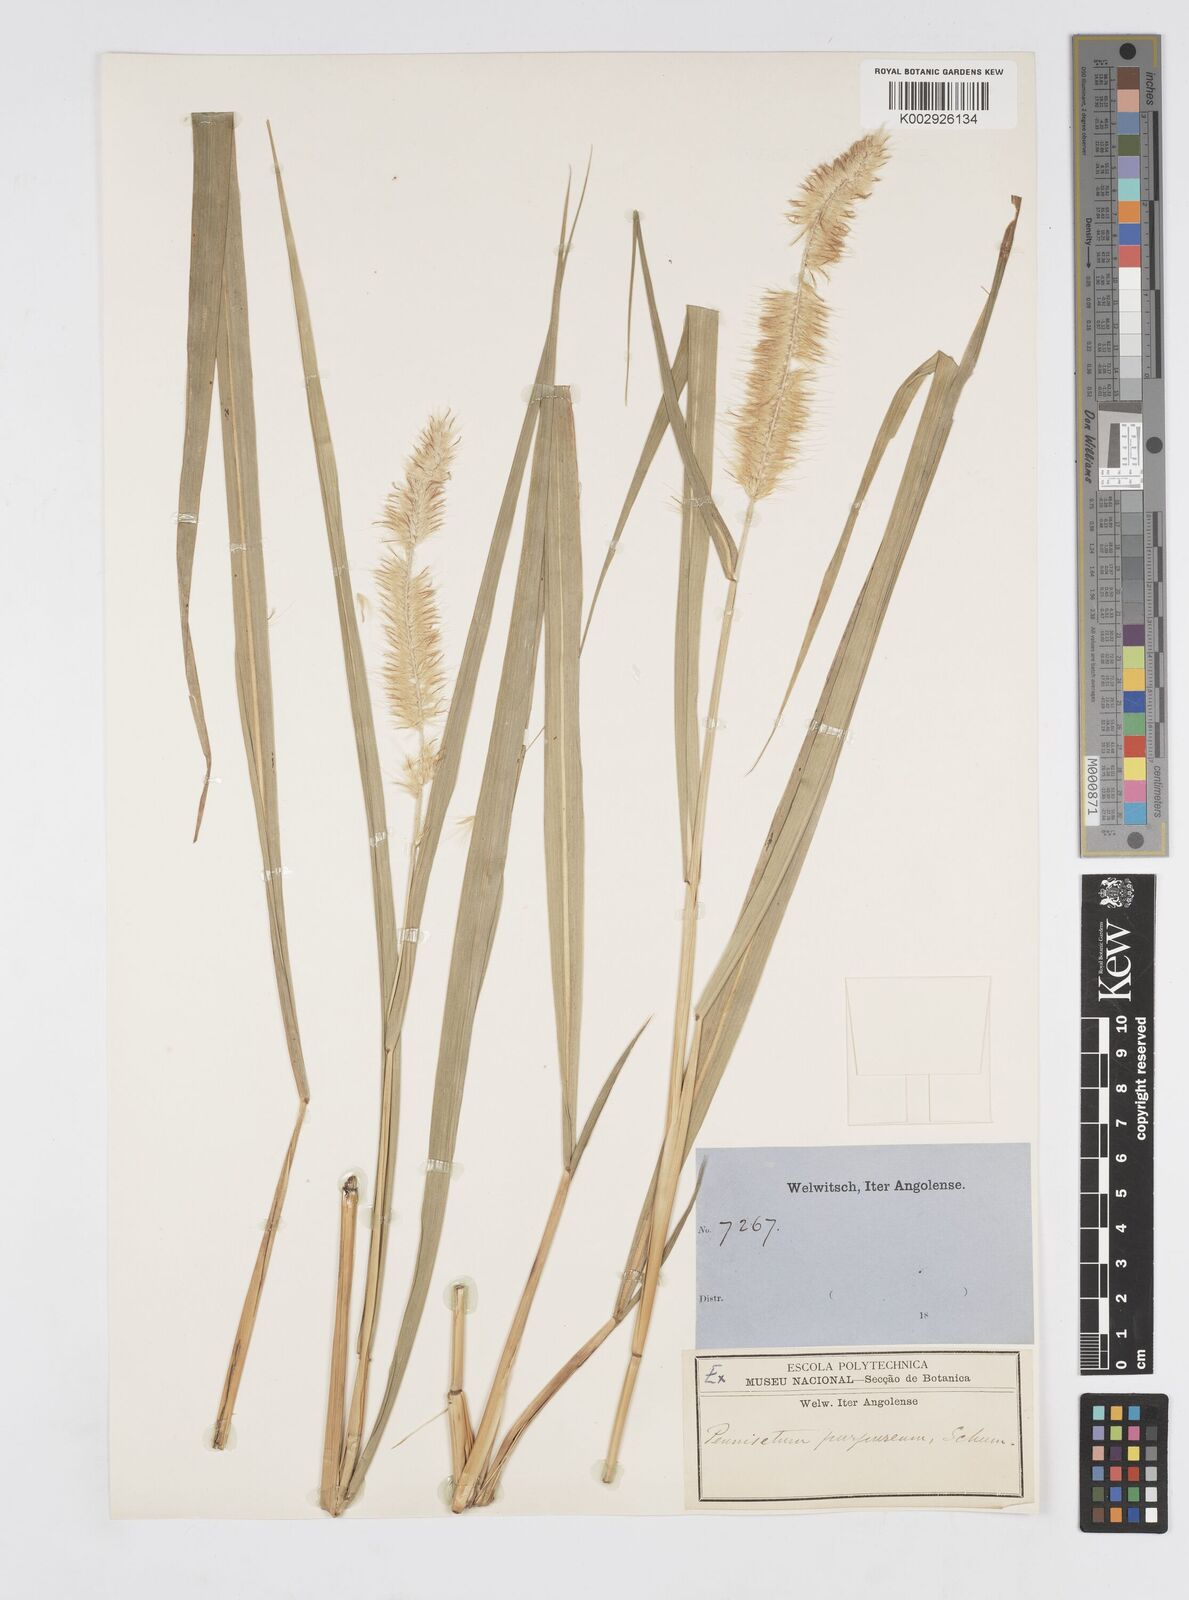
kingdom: Plantae
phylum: Tracheophyta
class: Liliopsida
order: Poales
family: Poaceae
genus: Cenchrus
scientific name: Cenchrus purpureus
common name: Elephant grass
